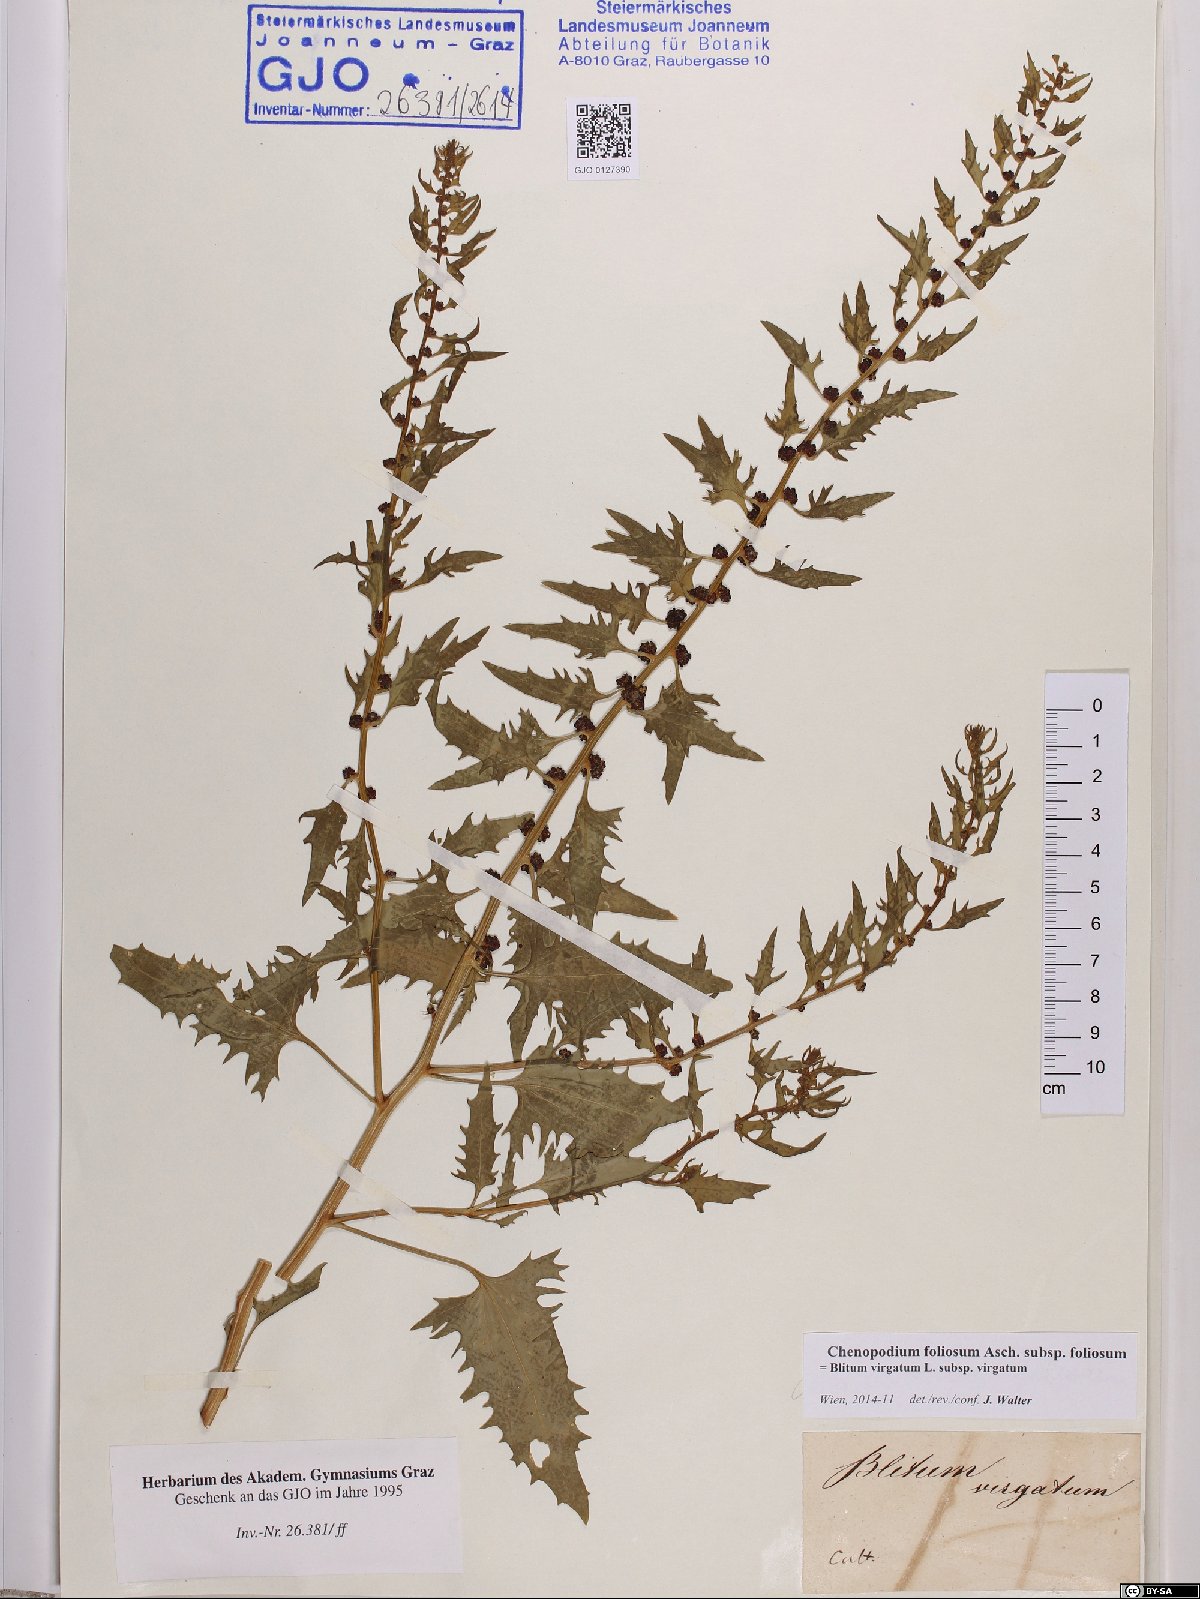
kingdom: Plantae
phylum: Tracheophyta
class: Magnoliopsida
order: Caryophyllales
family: Amaranthaceae
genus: Blitum
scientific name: Blitum virgatum
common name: Strawberry goosefoot
